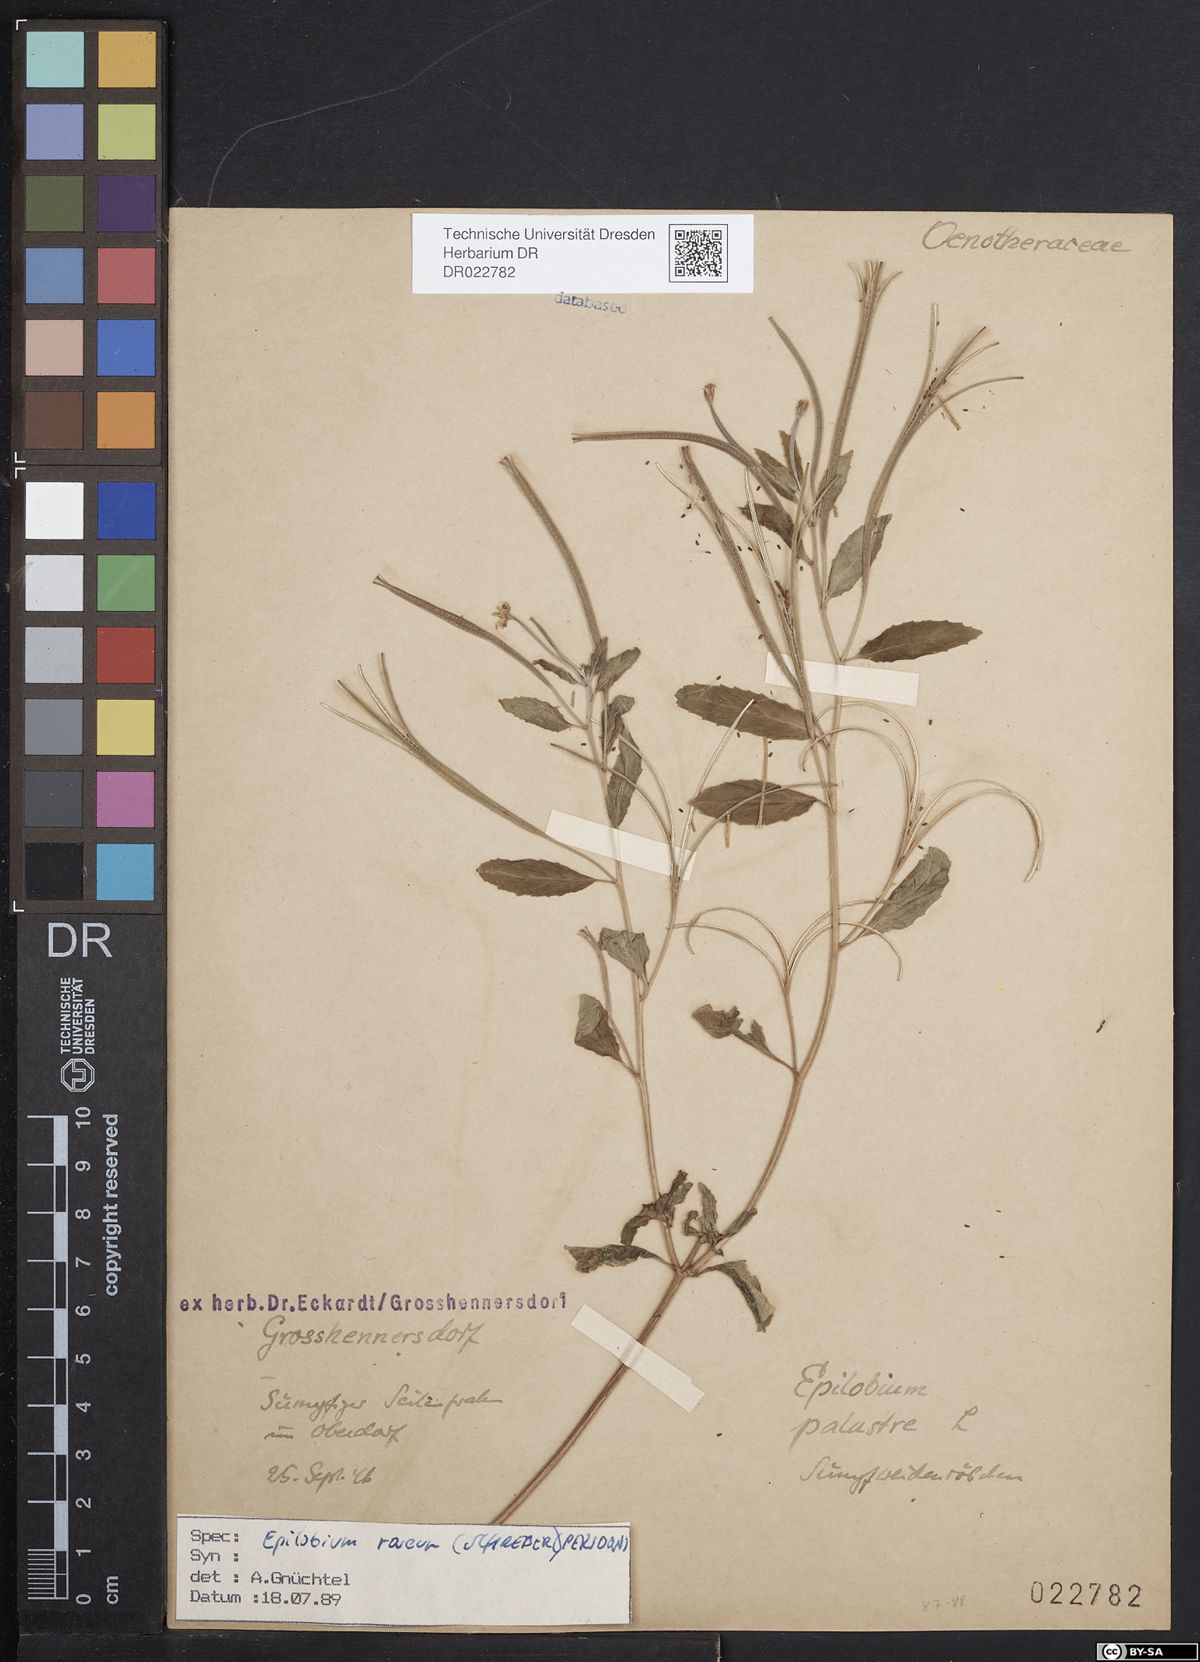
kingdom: Plantae
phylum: Tracheophyta
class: Magnoliopsida
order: Myrtales
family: Onagraceae
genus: Epilobium
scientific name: Epilobium roseum
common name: Pale willowherb
